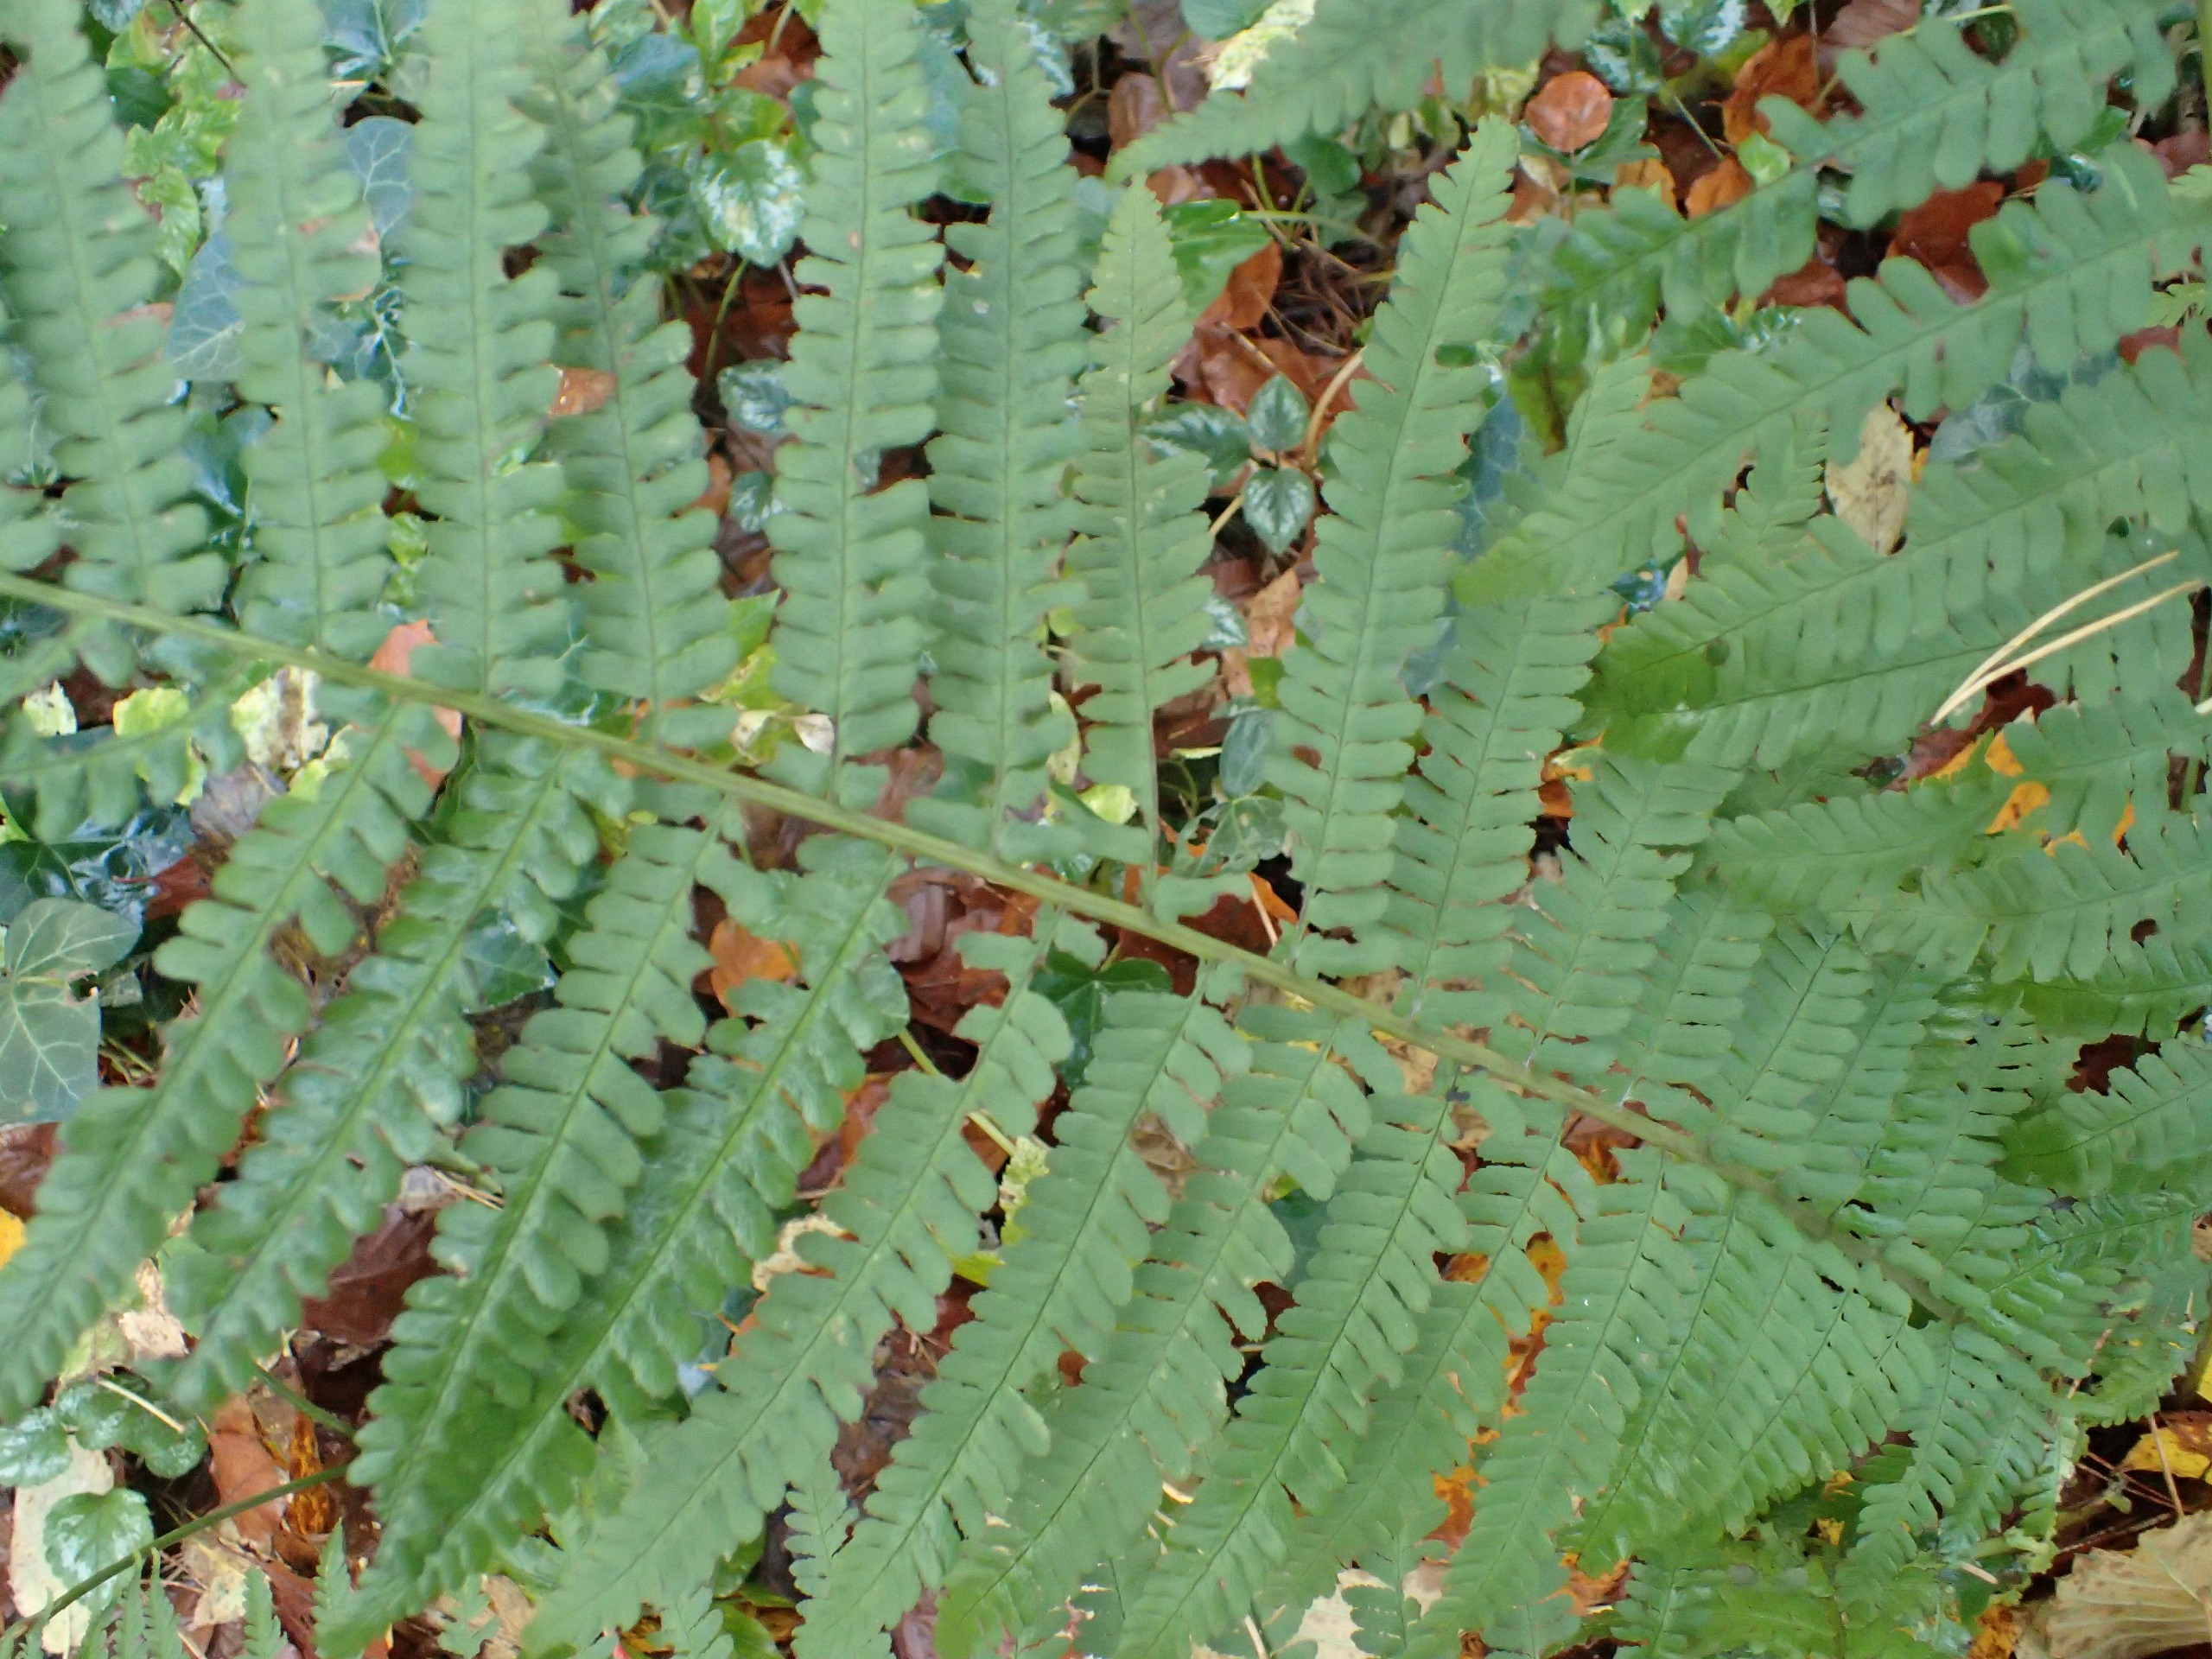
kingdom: Plantae
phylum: Tracheophyta
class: Polypodiopsida
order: Polypodiales
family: Dryopteridaceae
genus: Dryopteris
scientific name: Dryopteris filix-mas
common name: Almindelig mangeløv
